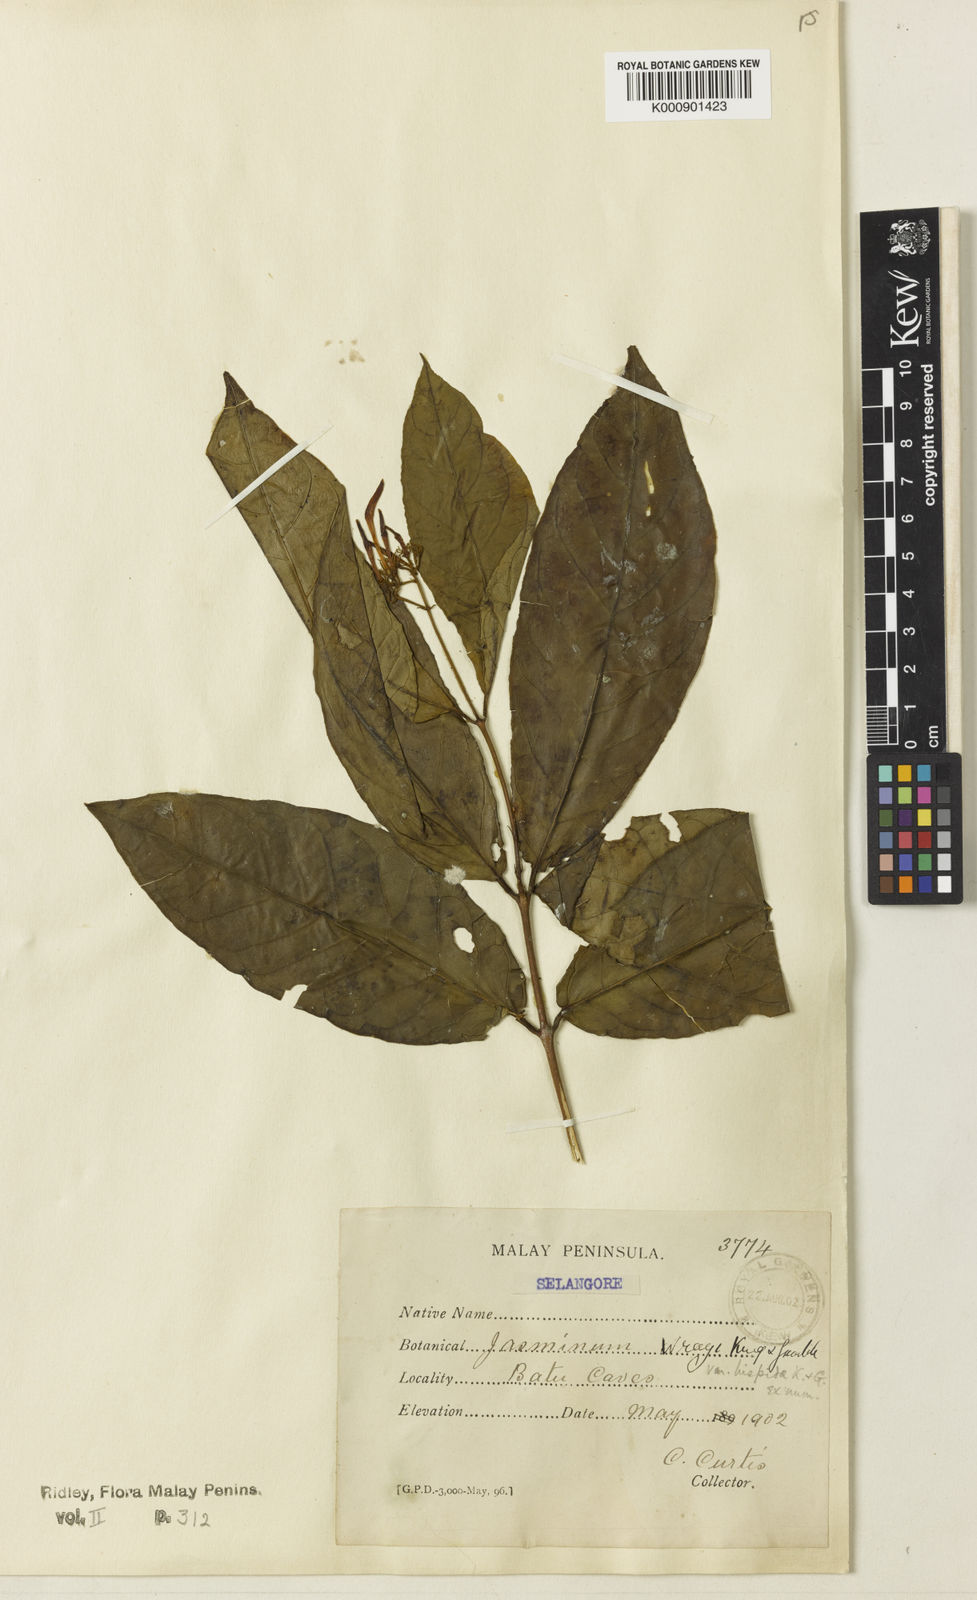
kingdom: Plantae
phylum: Tracheophyta
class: Magnoliopsida
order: Lamiales
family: Oleaceae
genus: Jasminum
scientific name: Jasminum wrayi
